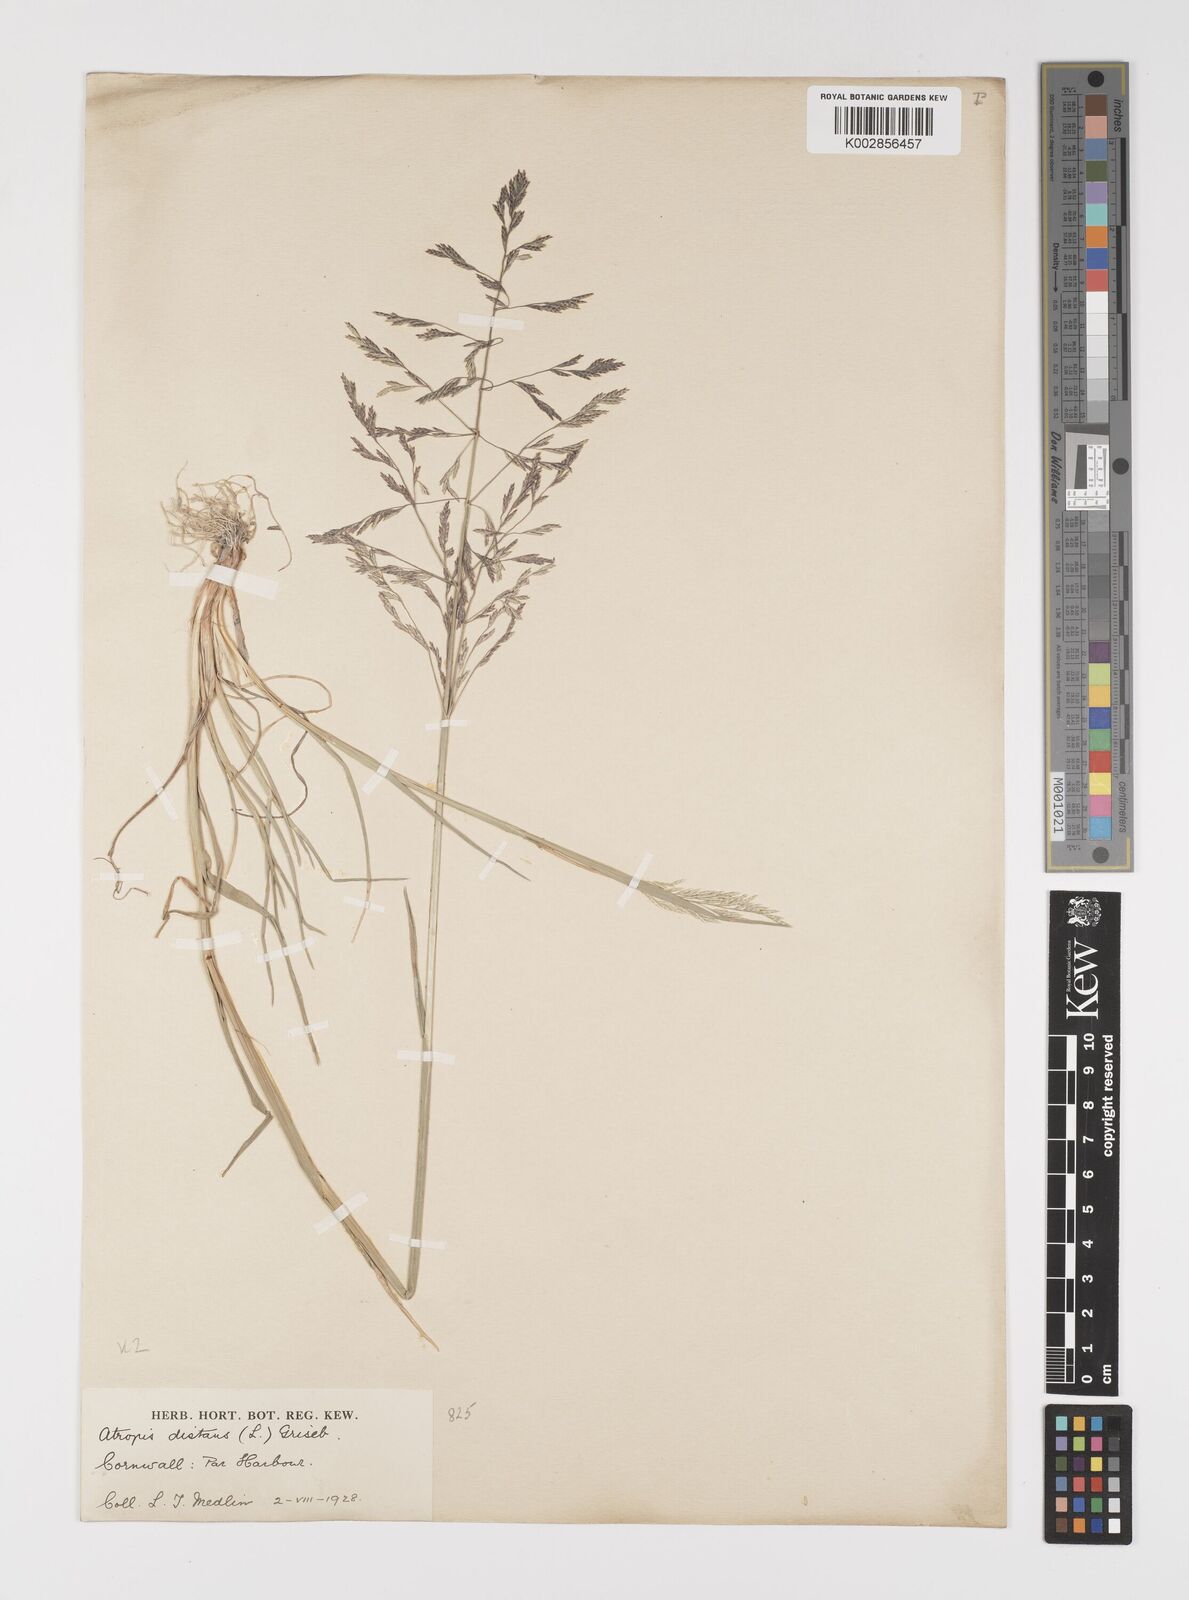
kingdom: Plantae
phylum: Tracheophyta
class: Liliopsida
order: Poales
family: Poaceae
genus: Puccinellia
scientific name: Puccinellia distans
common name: Weeping alkaligrass
